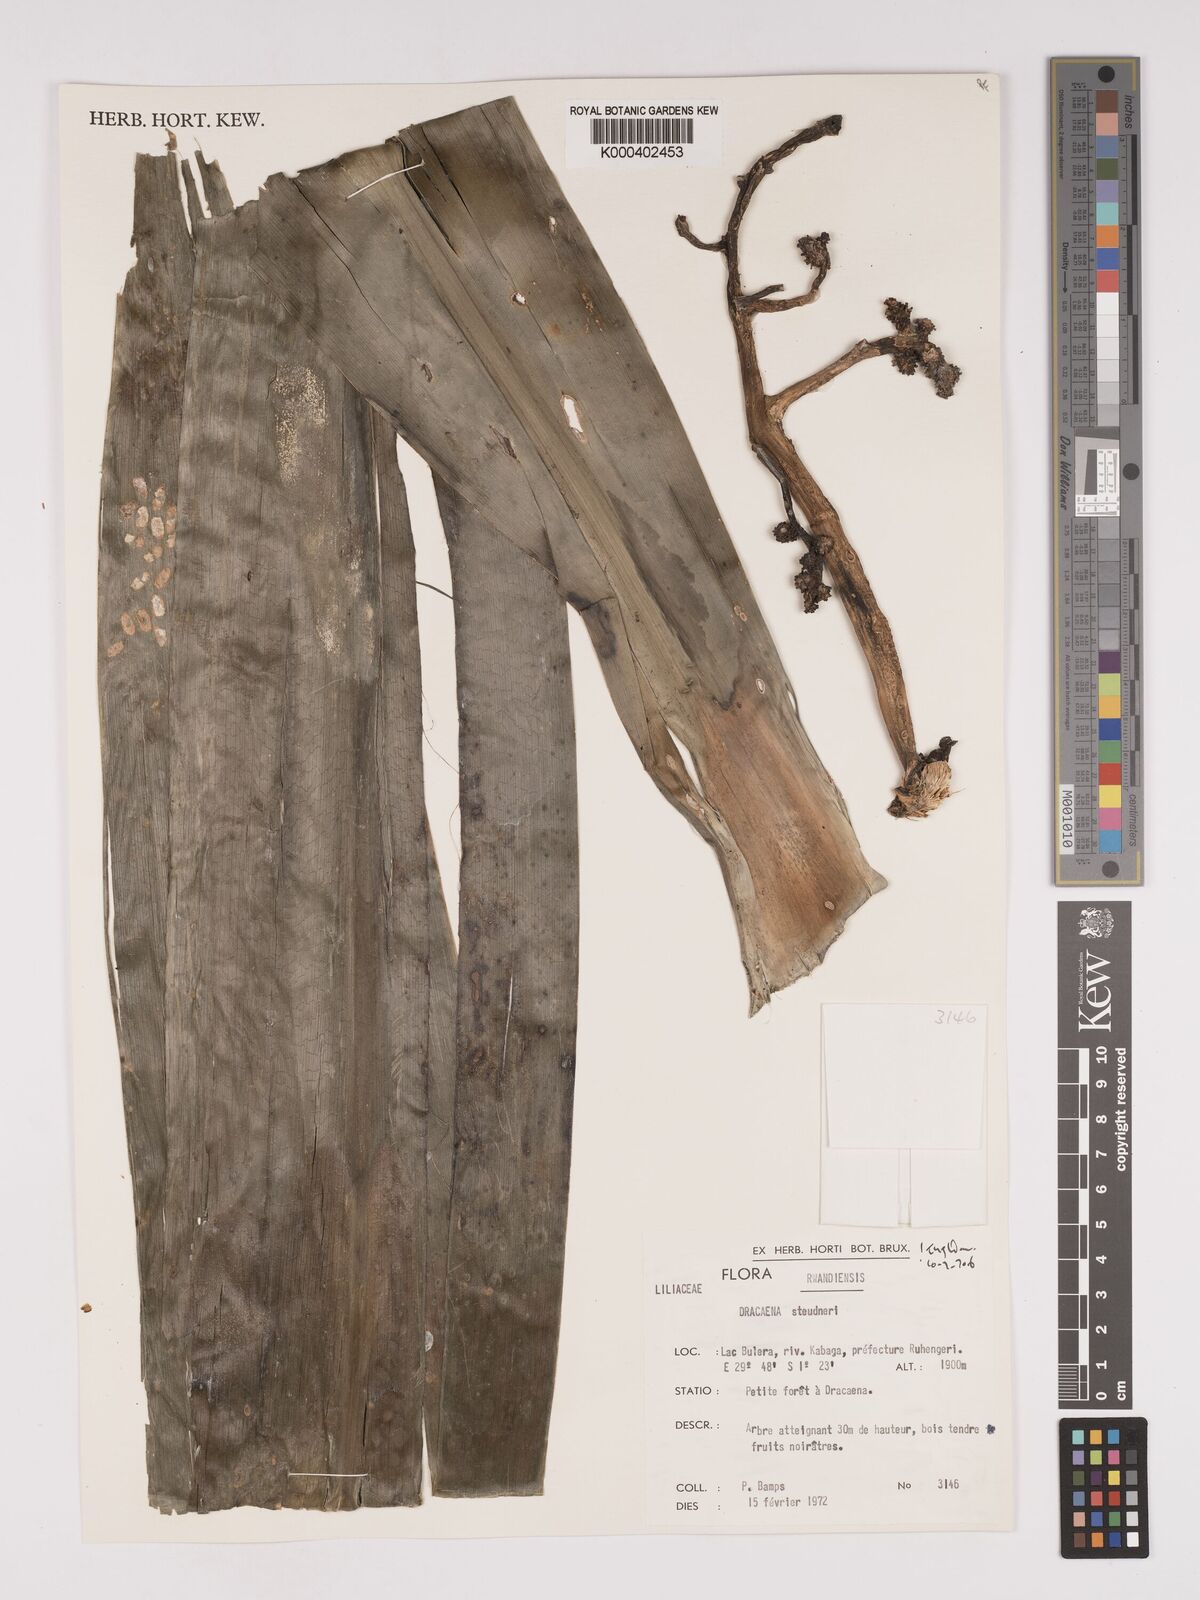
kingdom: Plantae
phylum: Tracheophyta
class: Liliopsida
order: Asparagales
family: Asparagaceae
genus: Dracaena
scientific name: Dracaena steudneri
